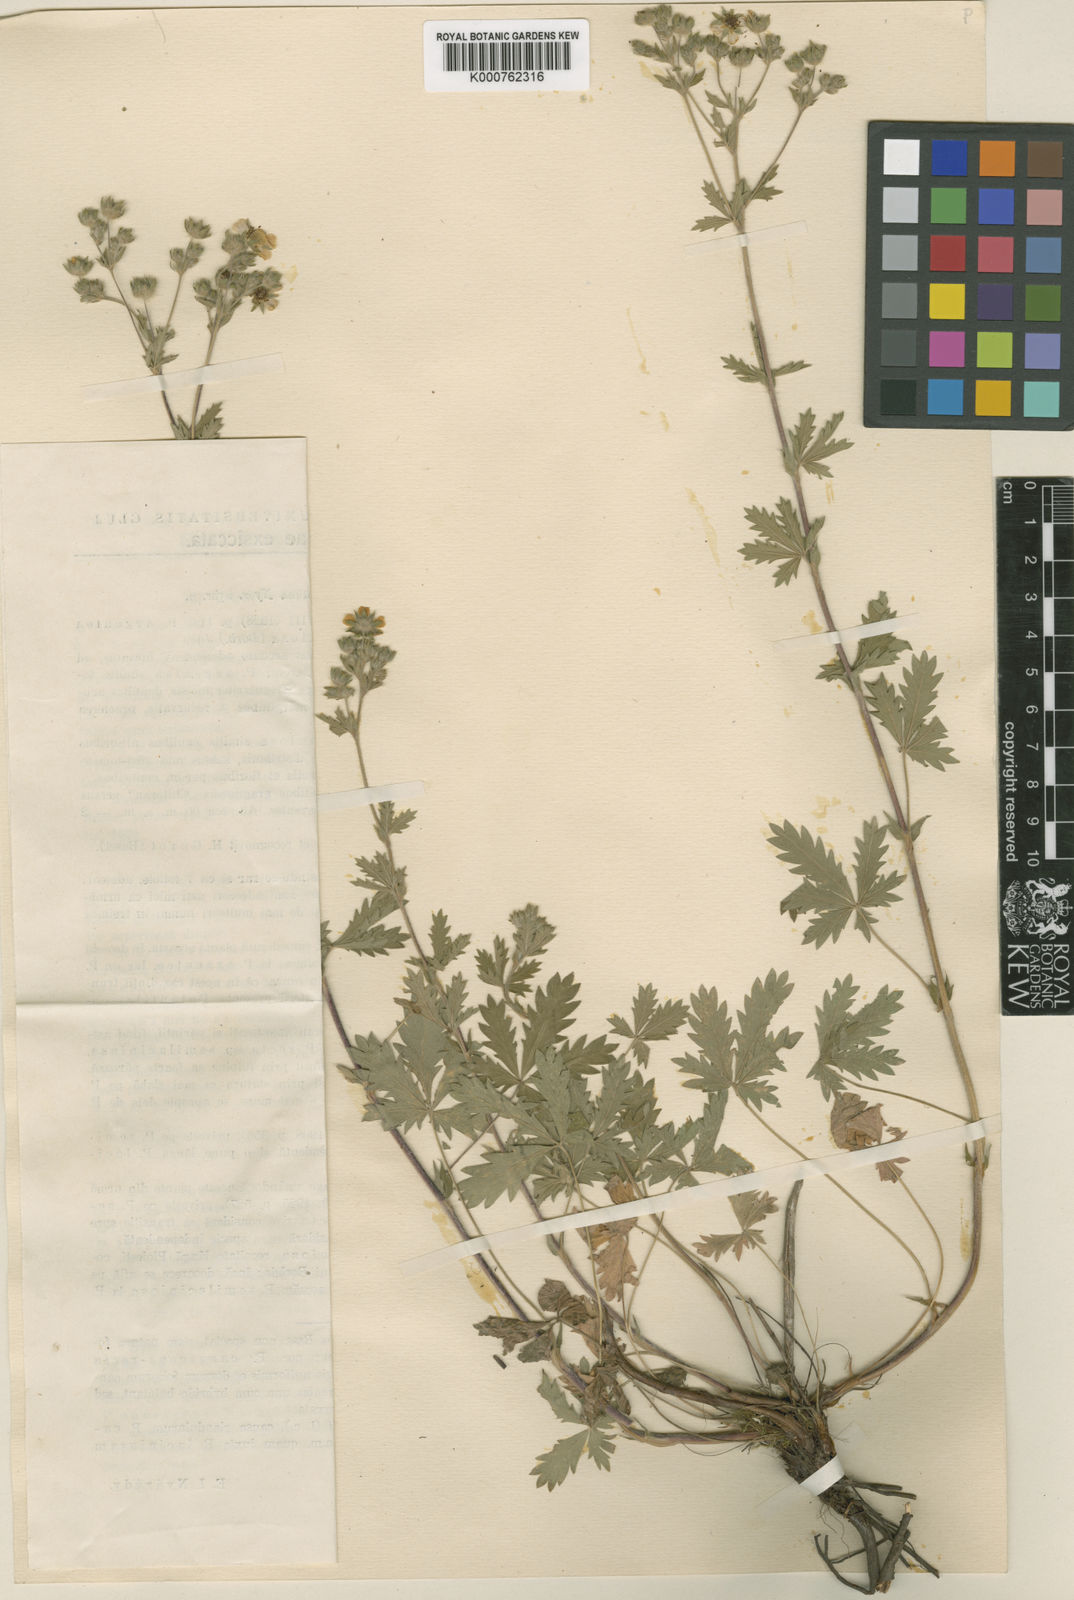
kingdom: Plantae
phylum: Tracheophyta
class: Magnoliopsida
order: Rosales
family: Rosaceae
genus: Potentilla
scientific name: Potentilla
